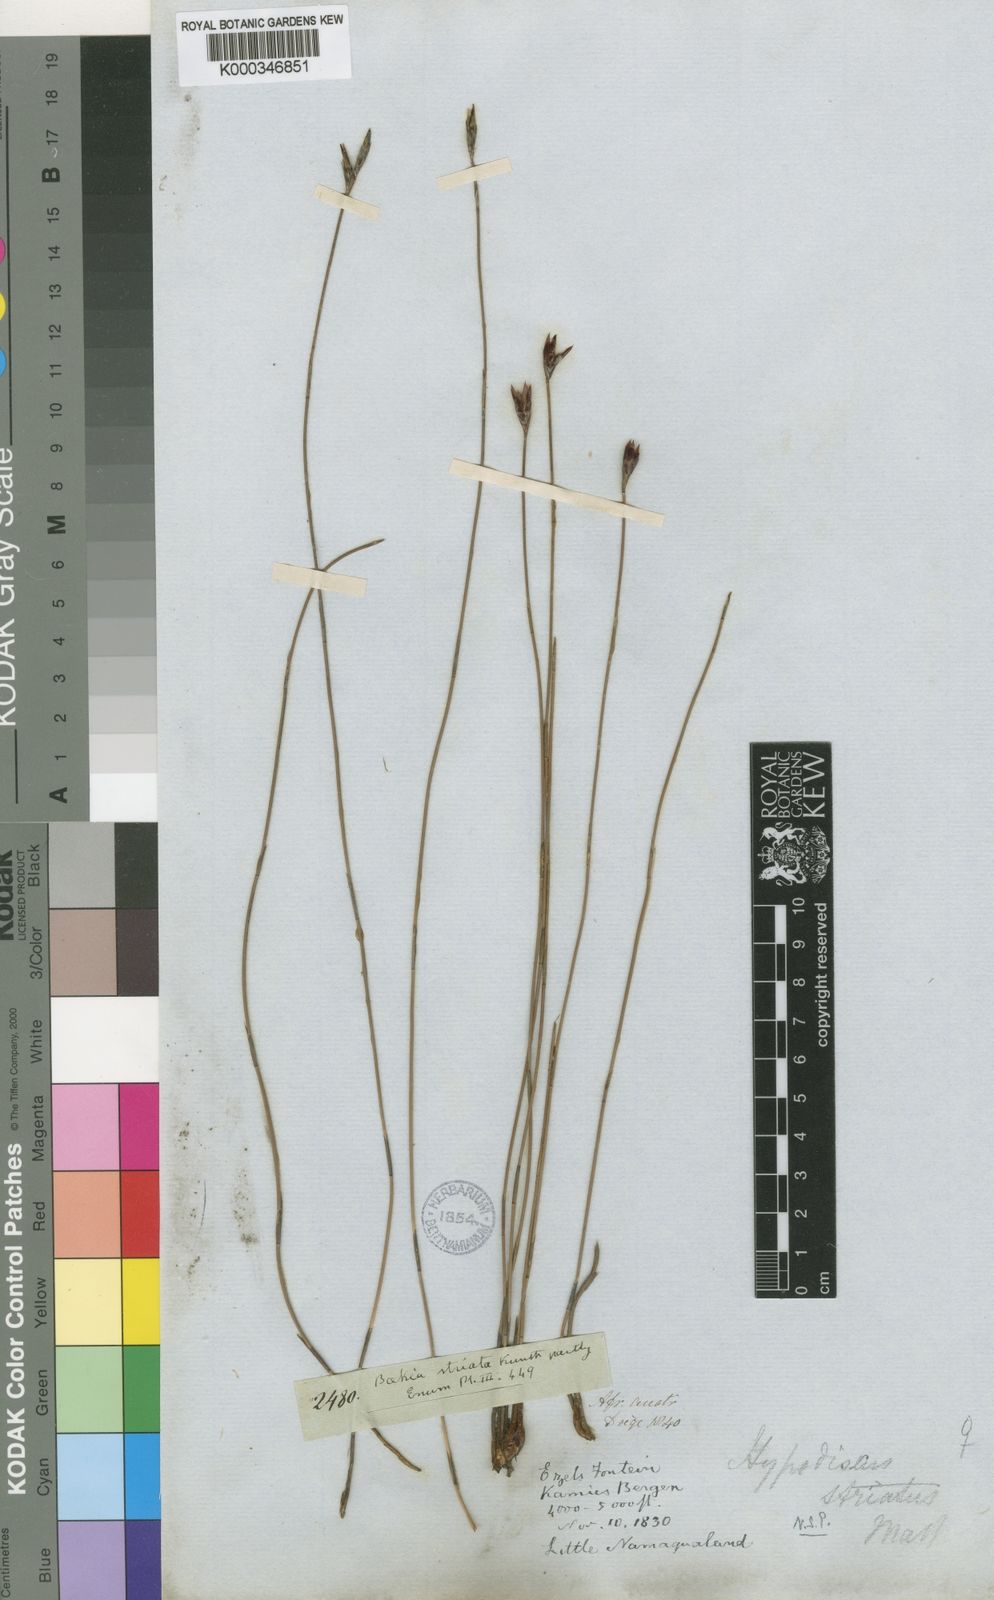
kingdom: Plantae
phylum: Tracheophyta
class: Liliopsida
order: Poales
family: Restionaceae
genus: Hypodiscus
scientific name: Hypodiscus striatus
